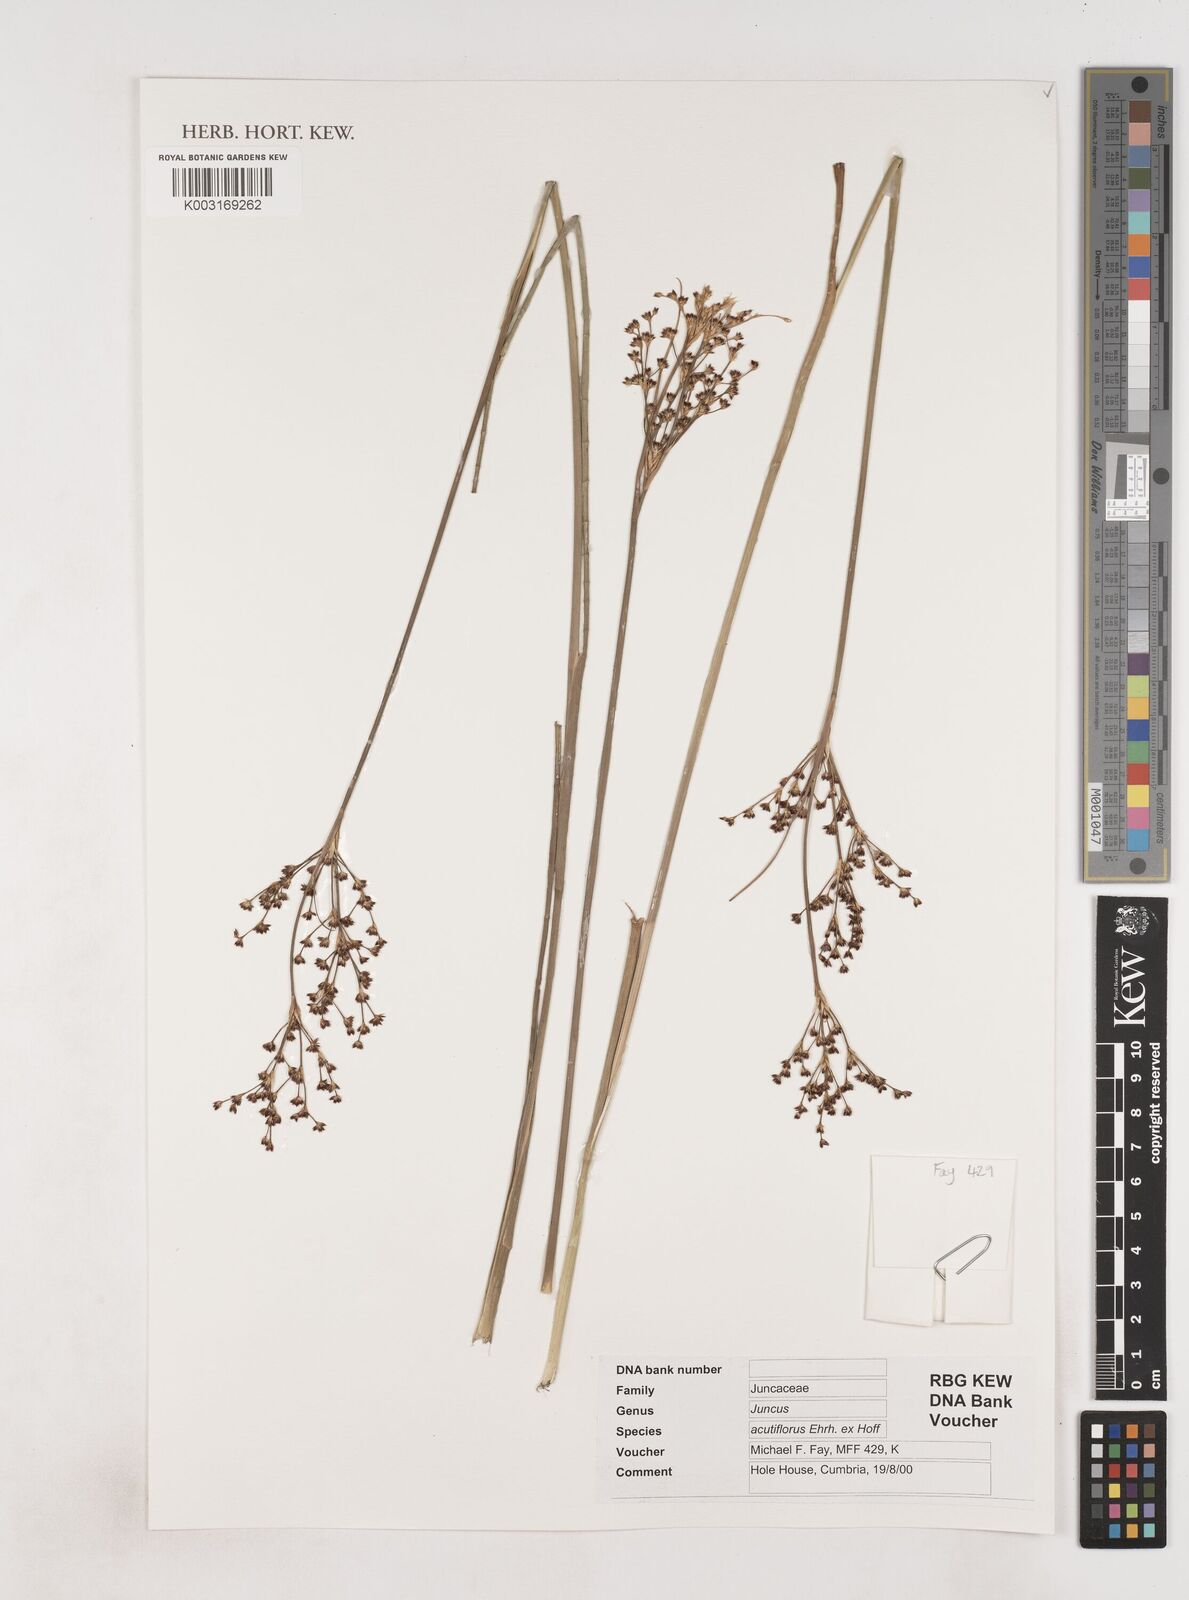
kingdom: Plantae
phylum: Tracheophyta
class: Liliopsida
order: Poales
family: Juncaceae
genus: Juncus
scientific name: Juncus acutiflorus
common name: Sharp-flowered rush
